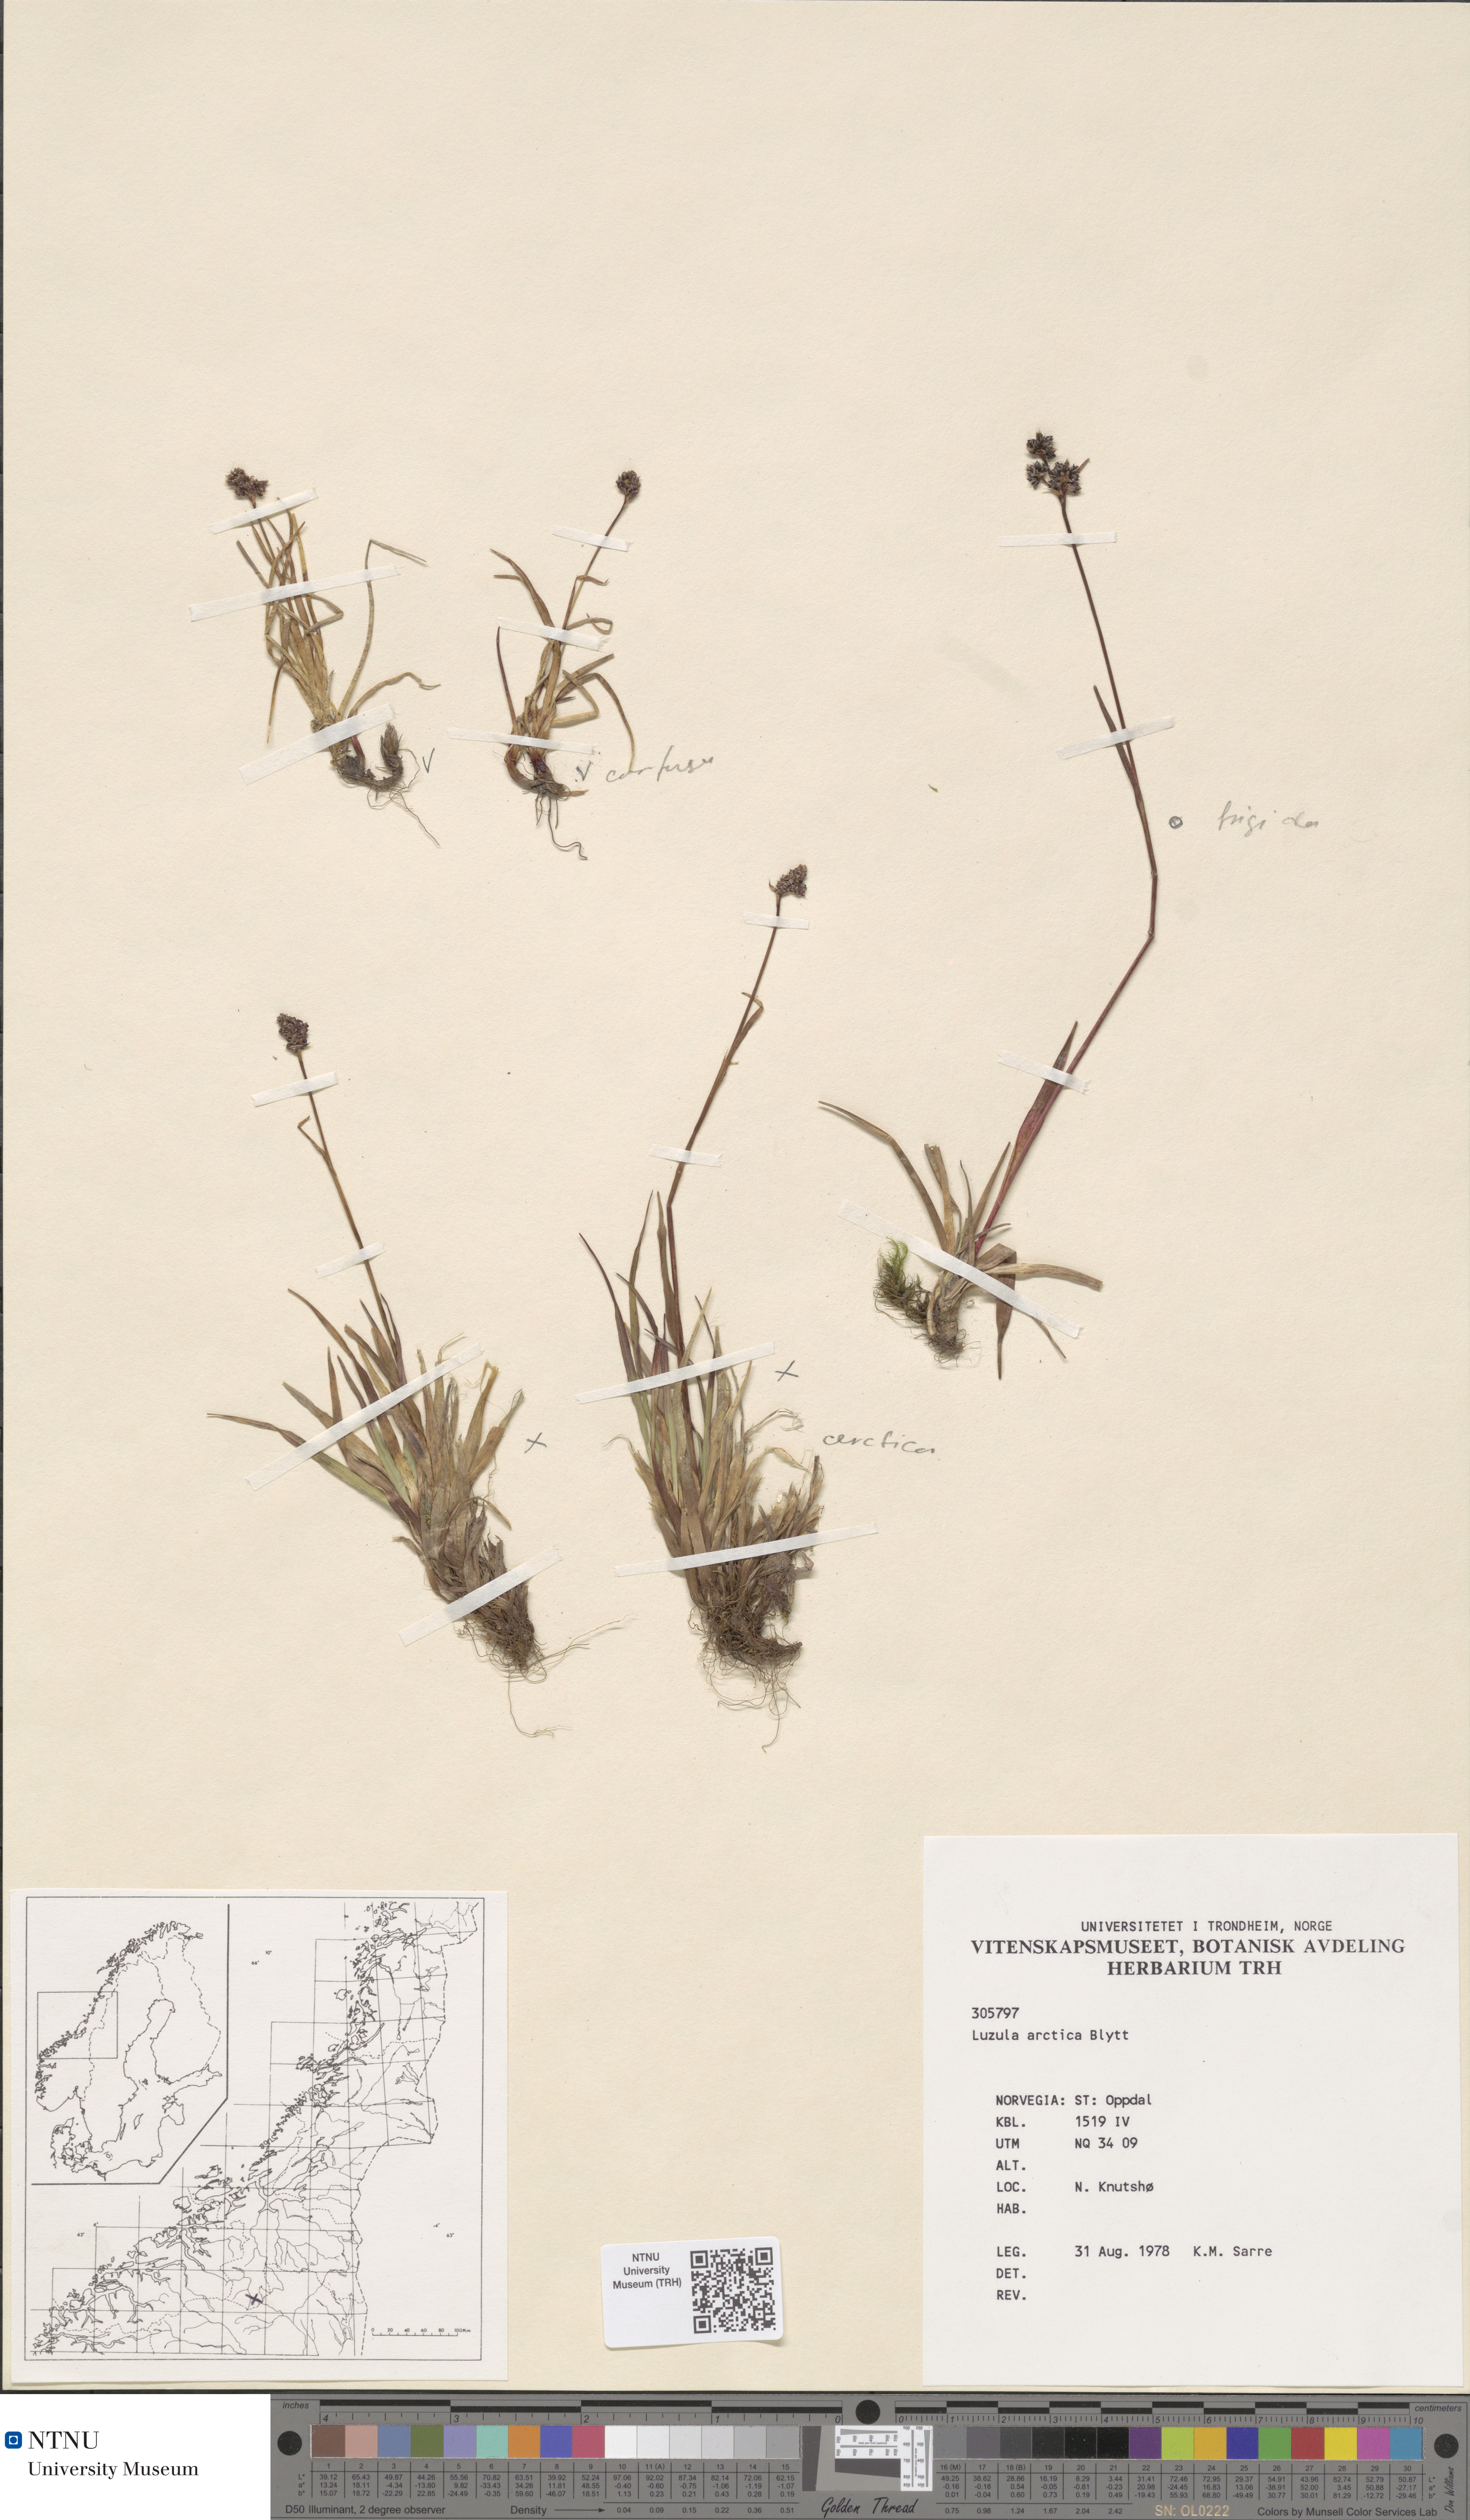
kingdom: Plantae
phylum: Tracheophyta
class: Liliopsida
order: Poales
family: Juncaceae
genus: Luzula
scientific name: Luzula nivalis
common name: Arctic woodrush
